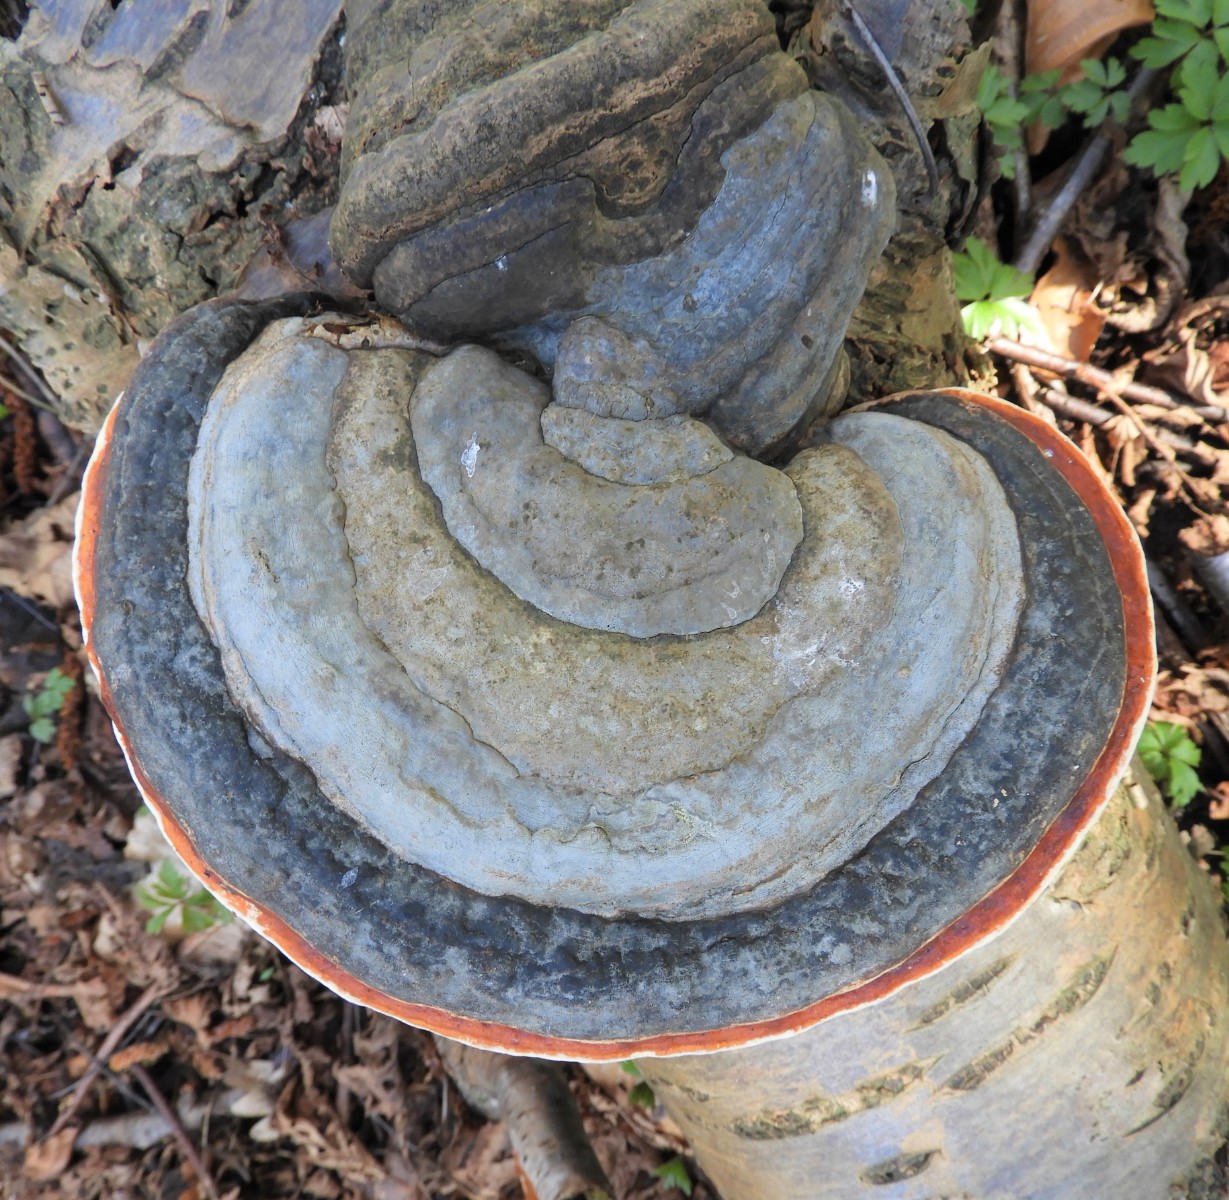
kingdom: Fungi
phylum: Basidiomycota
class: Agaricomycetes
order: Polyporales
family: Fomitopsidaceae
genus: Fomitopsis
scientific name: Fomitopsis pinicola
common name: randbæltet hovporesvamp
